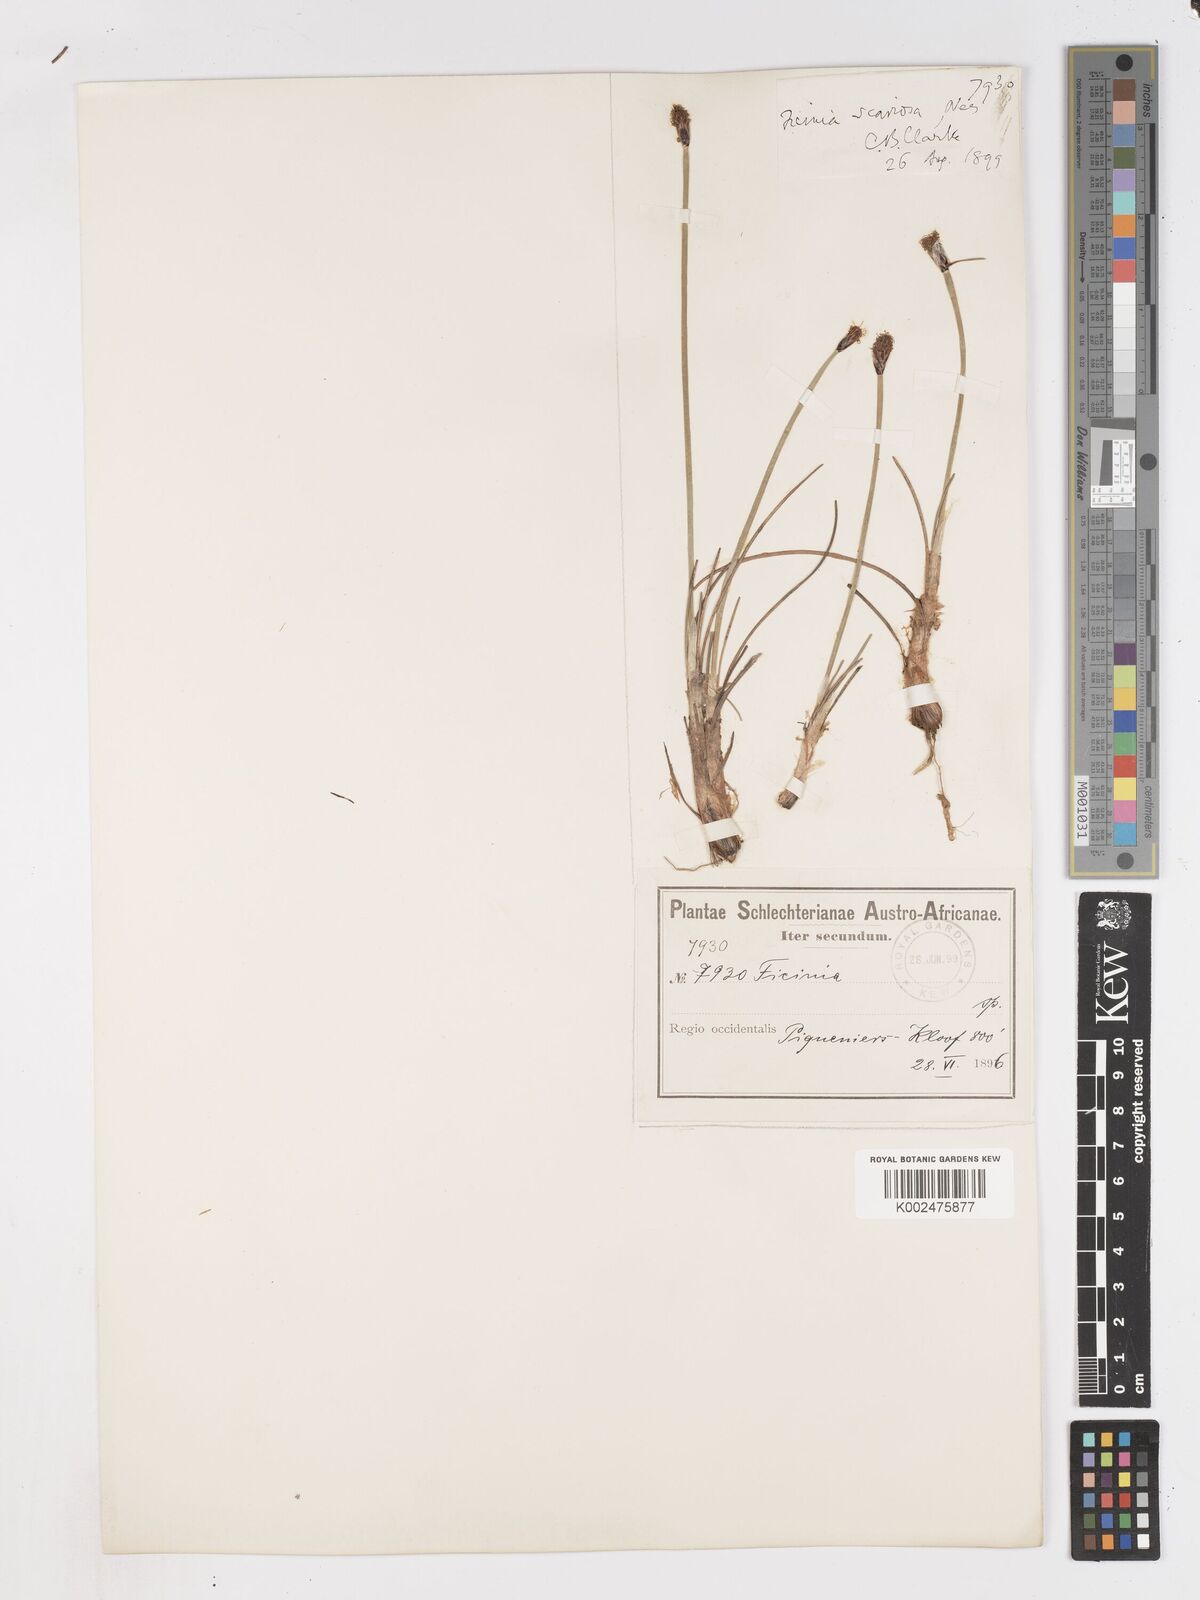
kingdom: Plantae
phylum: Tracheophyta
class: Liliopsida
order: Poales
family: Cyperaceae
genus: Ficinia
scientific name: Ficinia deusta
